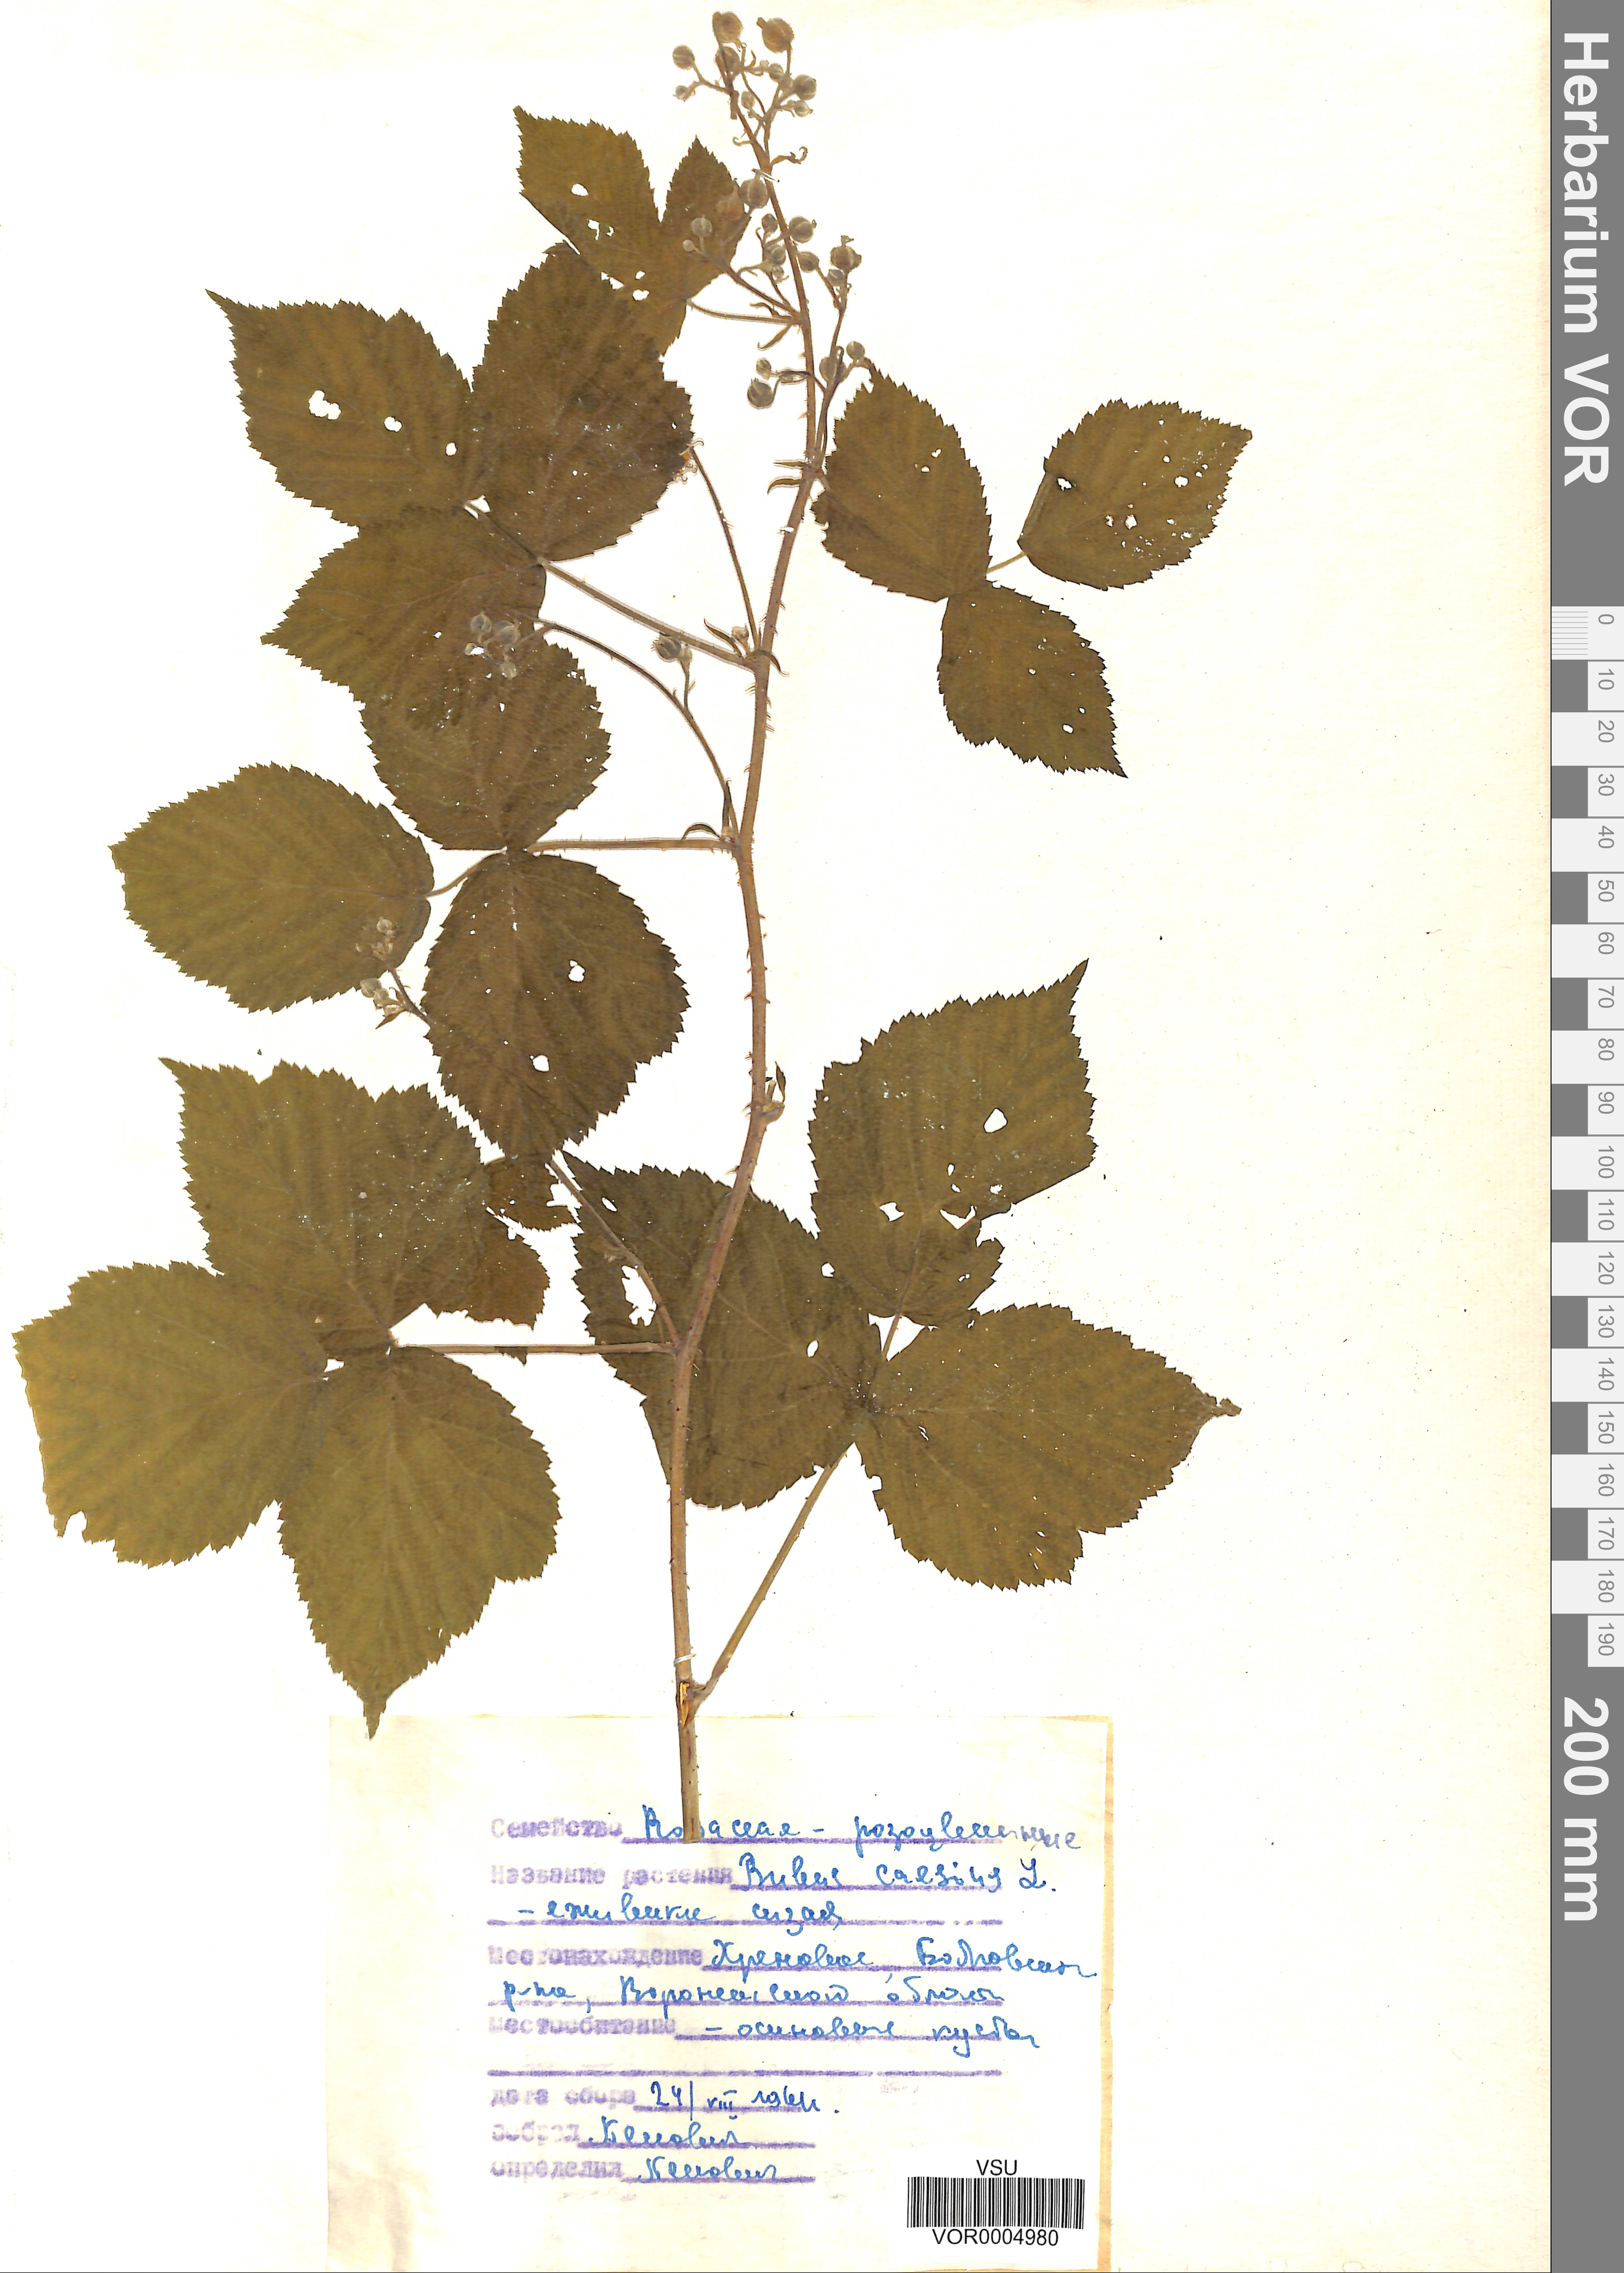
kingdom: Plantae
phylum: Tracheophyta
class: Magnoliopsida
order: Rosales
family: Rosaceae
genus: Rubus
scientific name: Rubus caesius
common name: Dewberry
